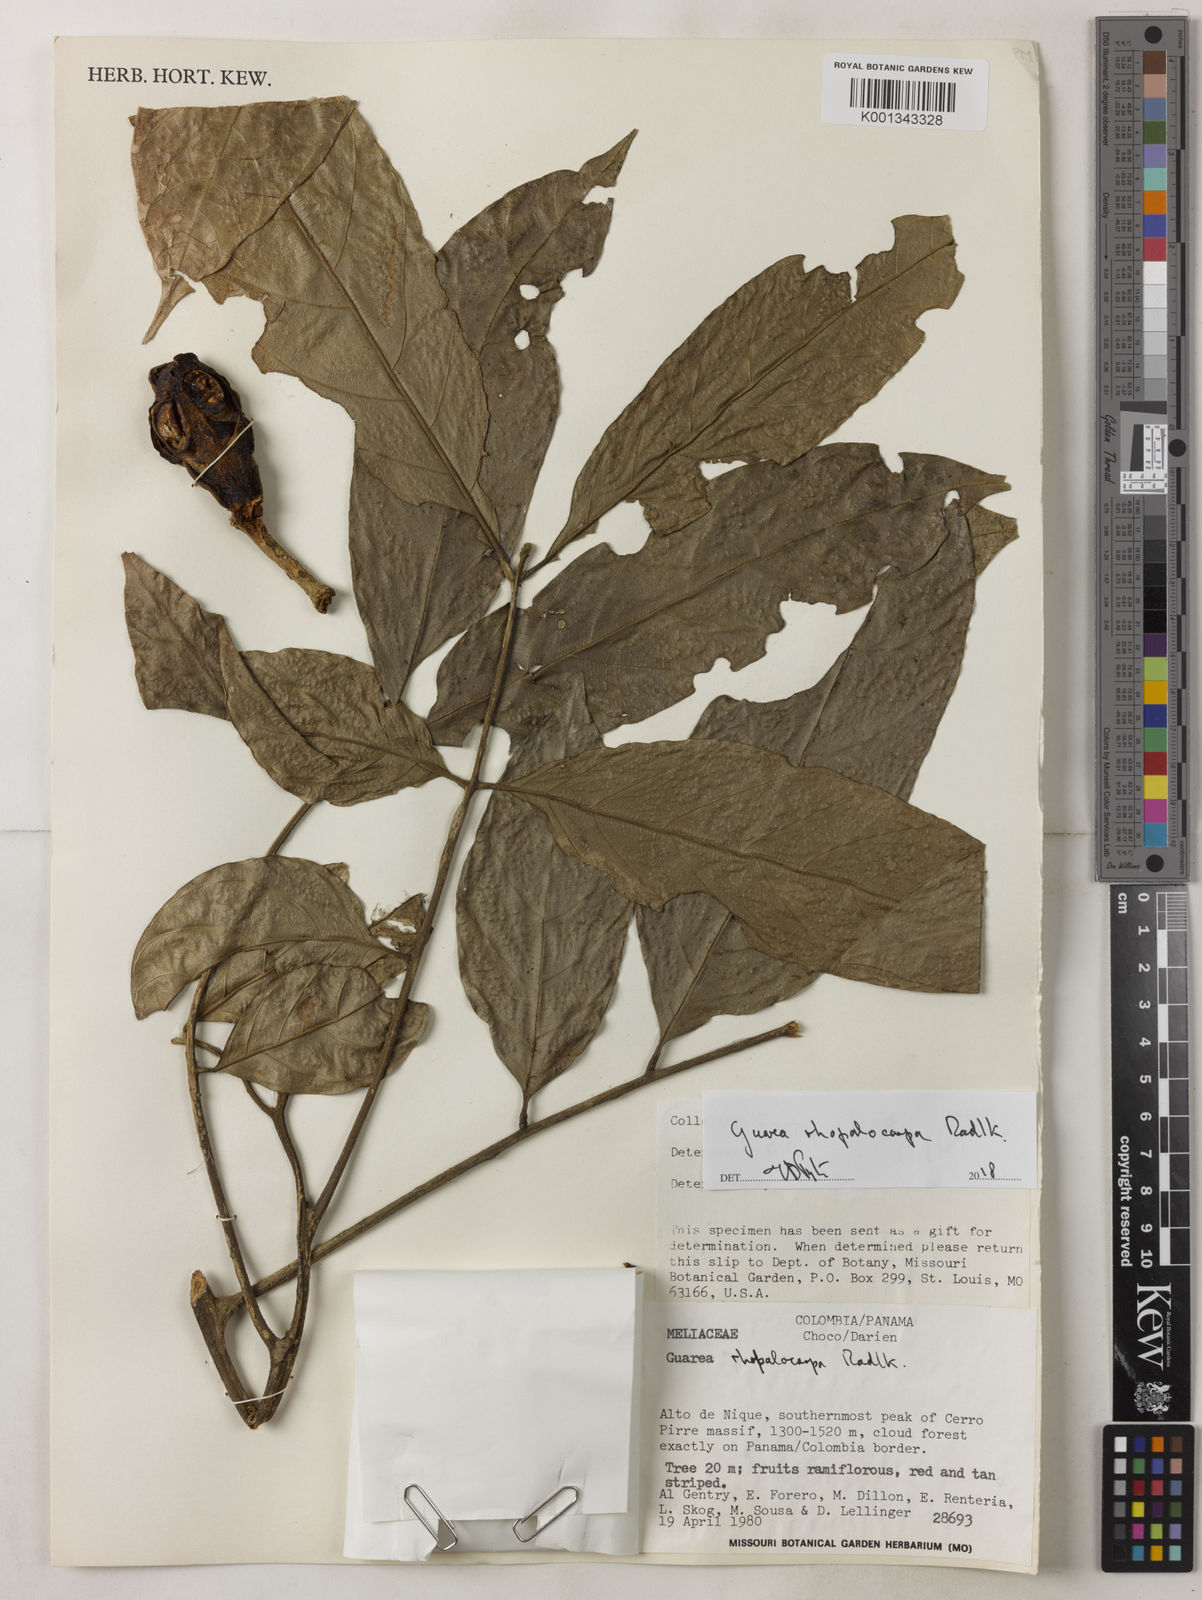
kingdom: Plantae
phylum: Tracheophyta
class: Magnoliopsida
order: Sapindales
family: Meliaceae
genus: Guarea
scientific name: Guarea rhopalocarpa
